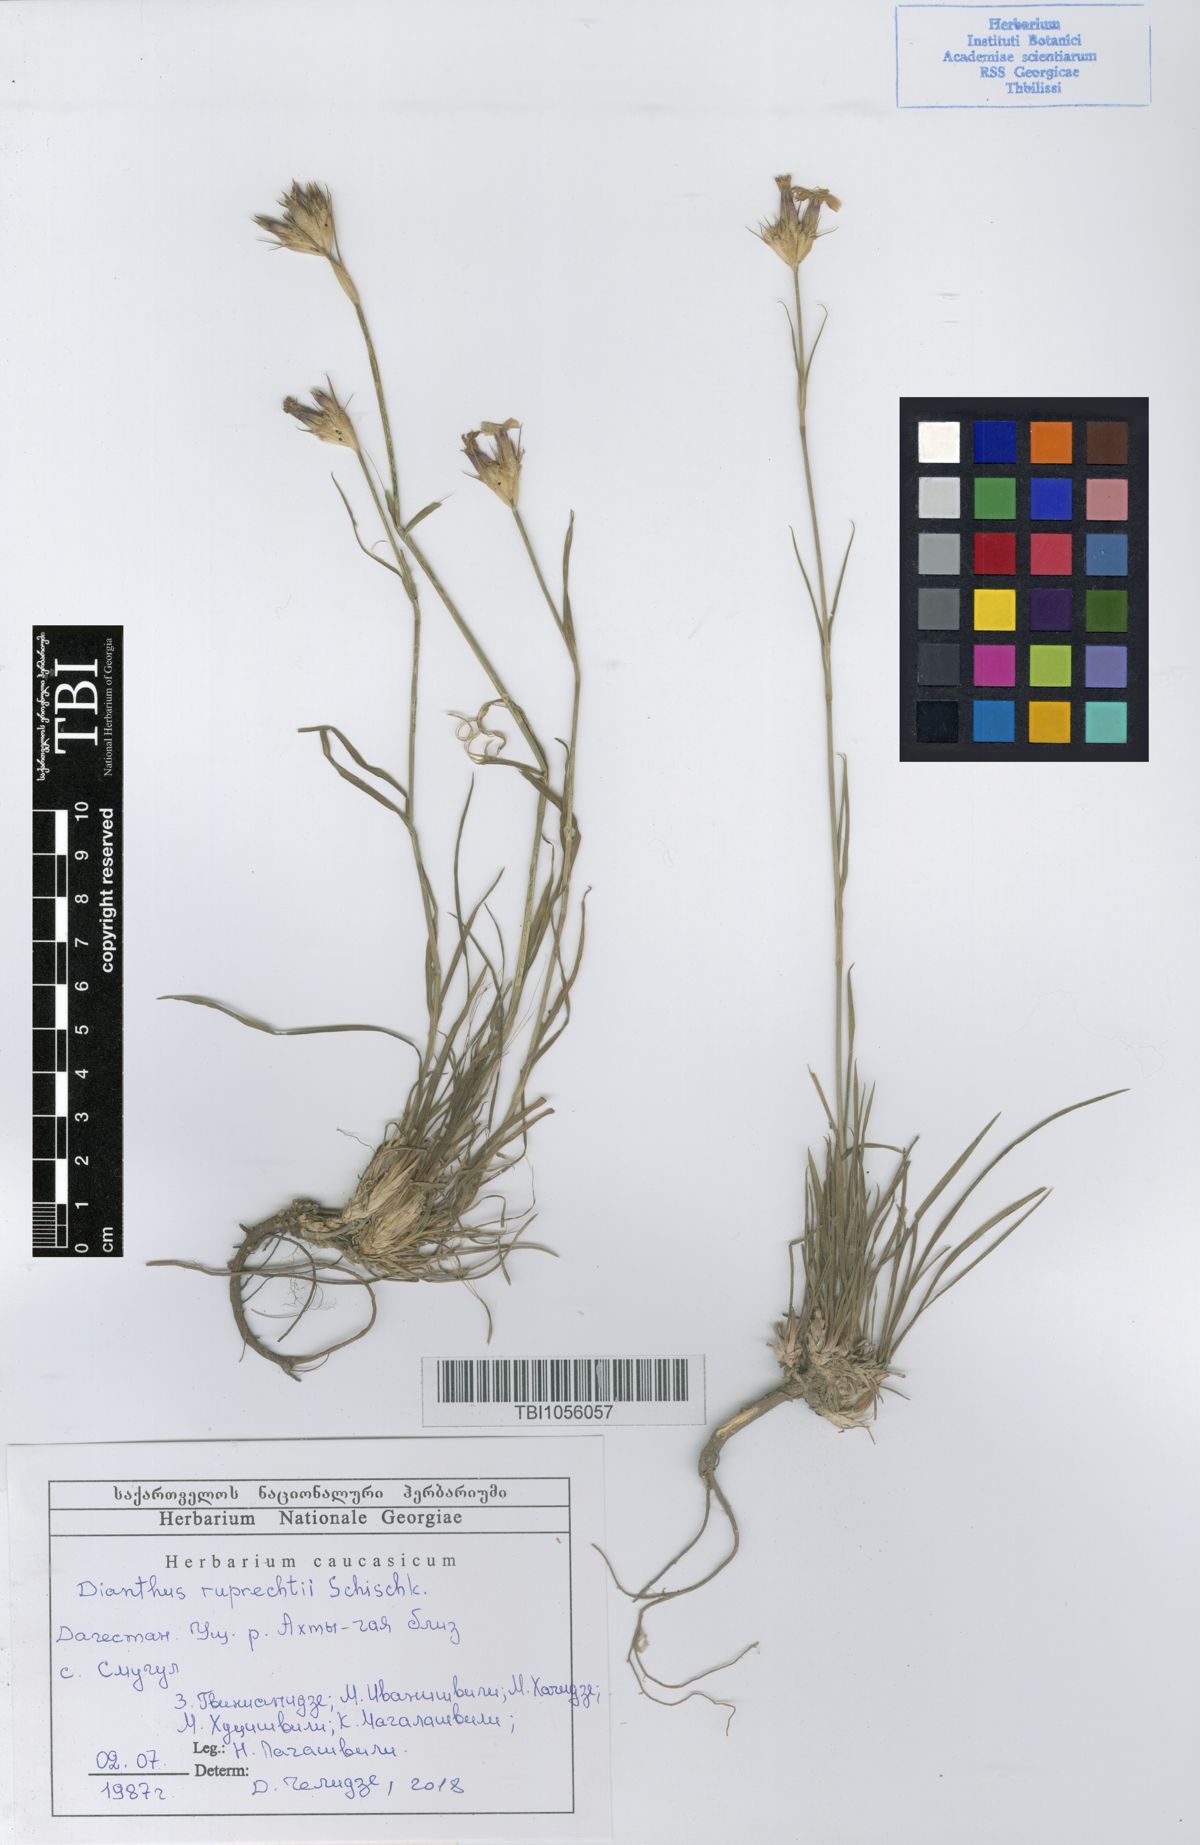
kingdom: Plantae
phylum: Tracheophyta
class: Magnoliopsida
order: Caryophyllales
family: Caryophyllaceae
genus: Dianthus
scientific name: Dianthus ruprechtii
